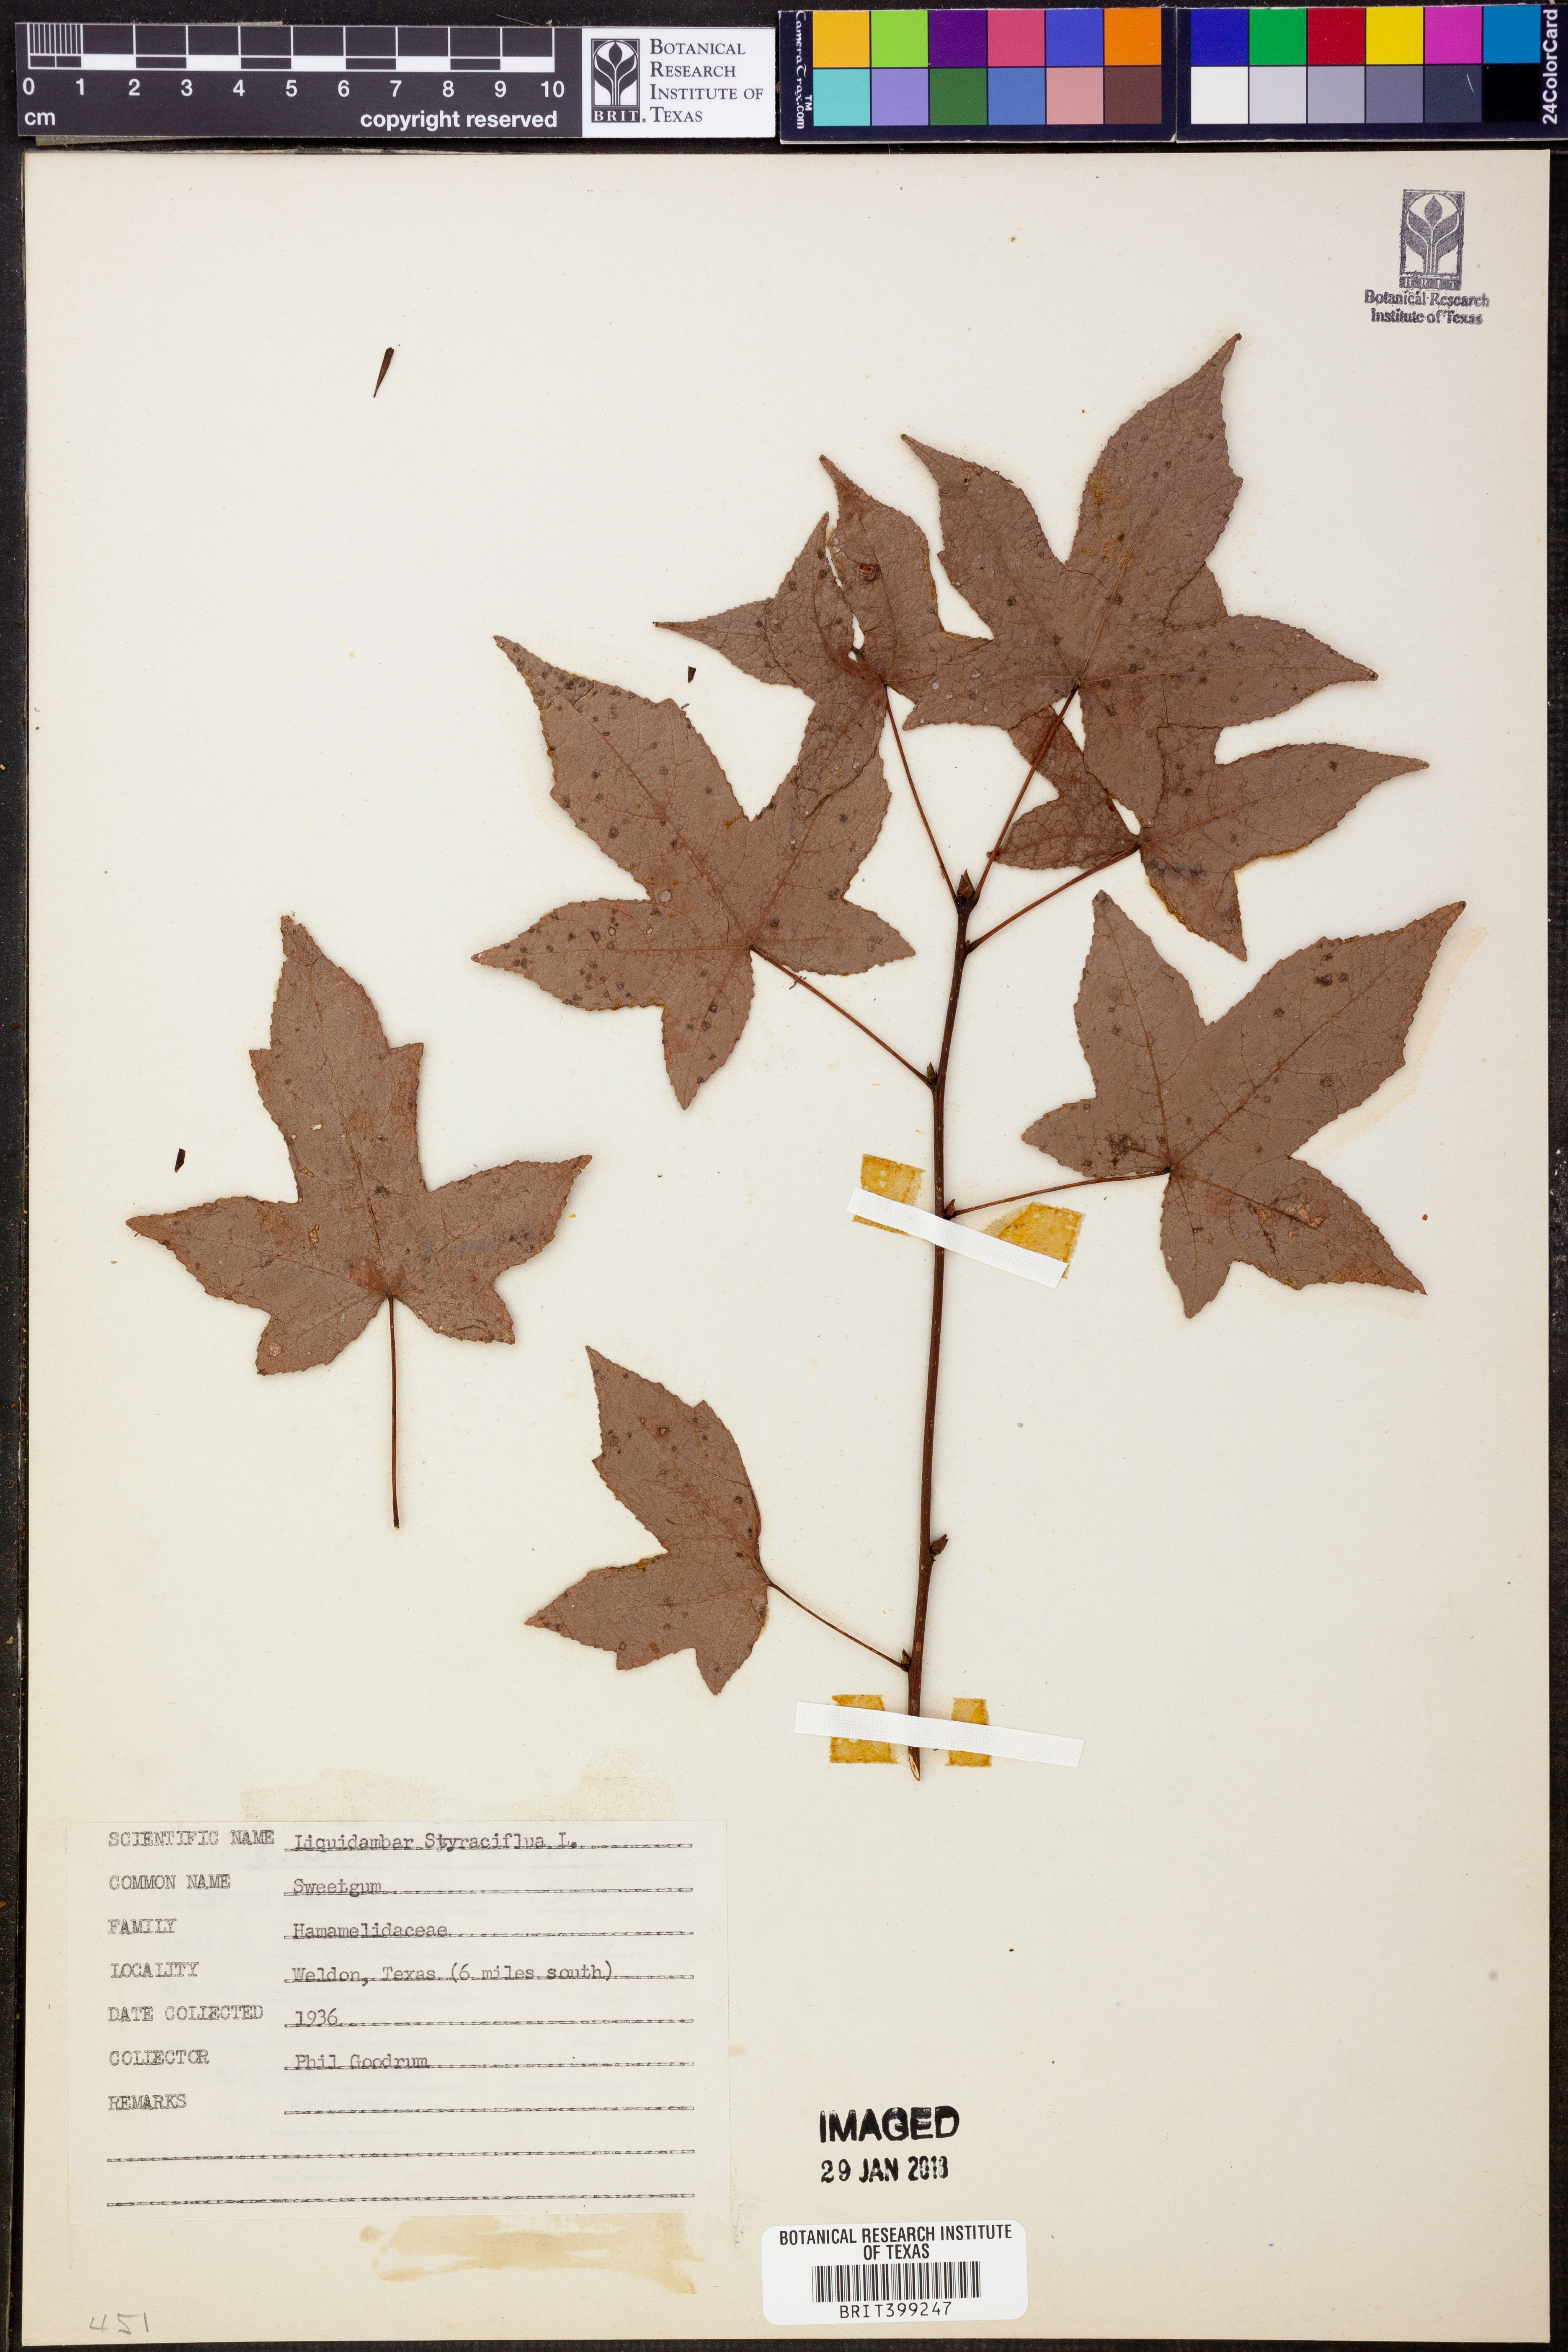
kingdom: Plantae
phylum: Tracheophyta
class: Magnoliopsida
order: Saxifragales
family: Altingiaceae
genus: Liquidambar
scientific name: Liquidambar styraciflua
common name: Sweet gum
